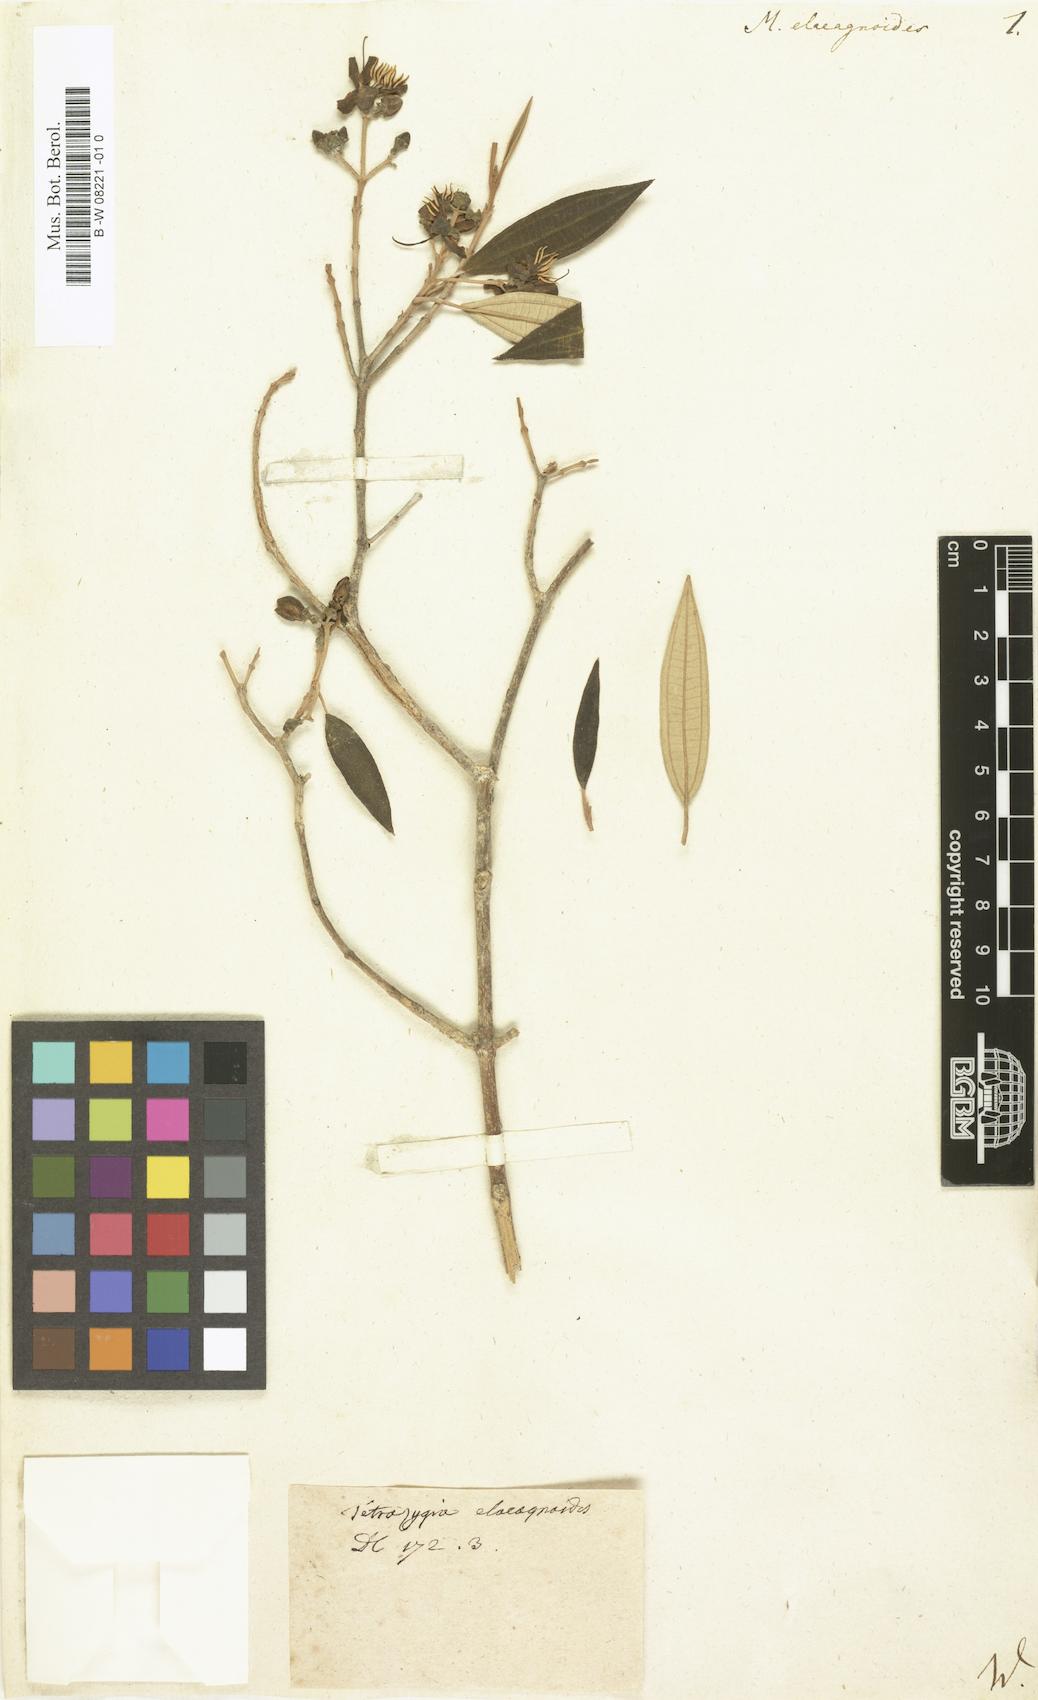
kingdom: Plantae
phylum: Tracheophyta
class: Magnoliopsida
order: Myrtales
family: Melastomataceae
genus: Melastoma
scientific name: Melastoma elaeagnoides
